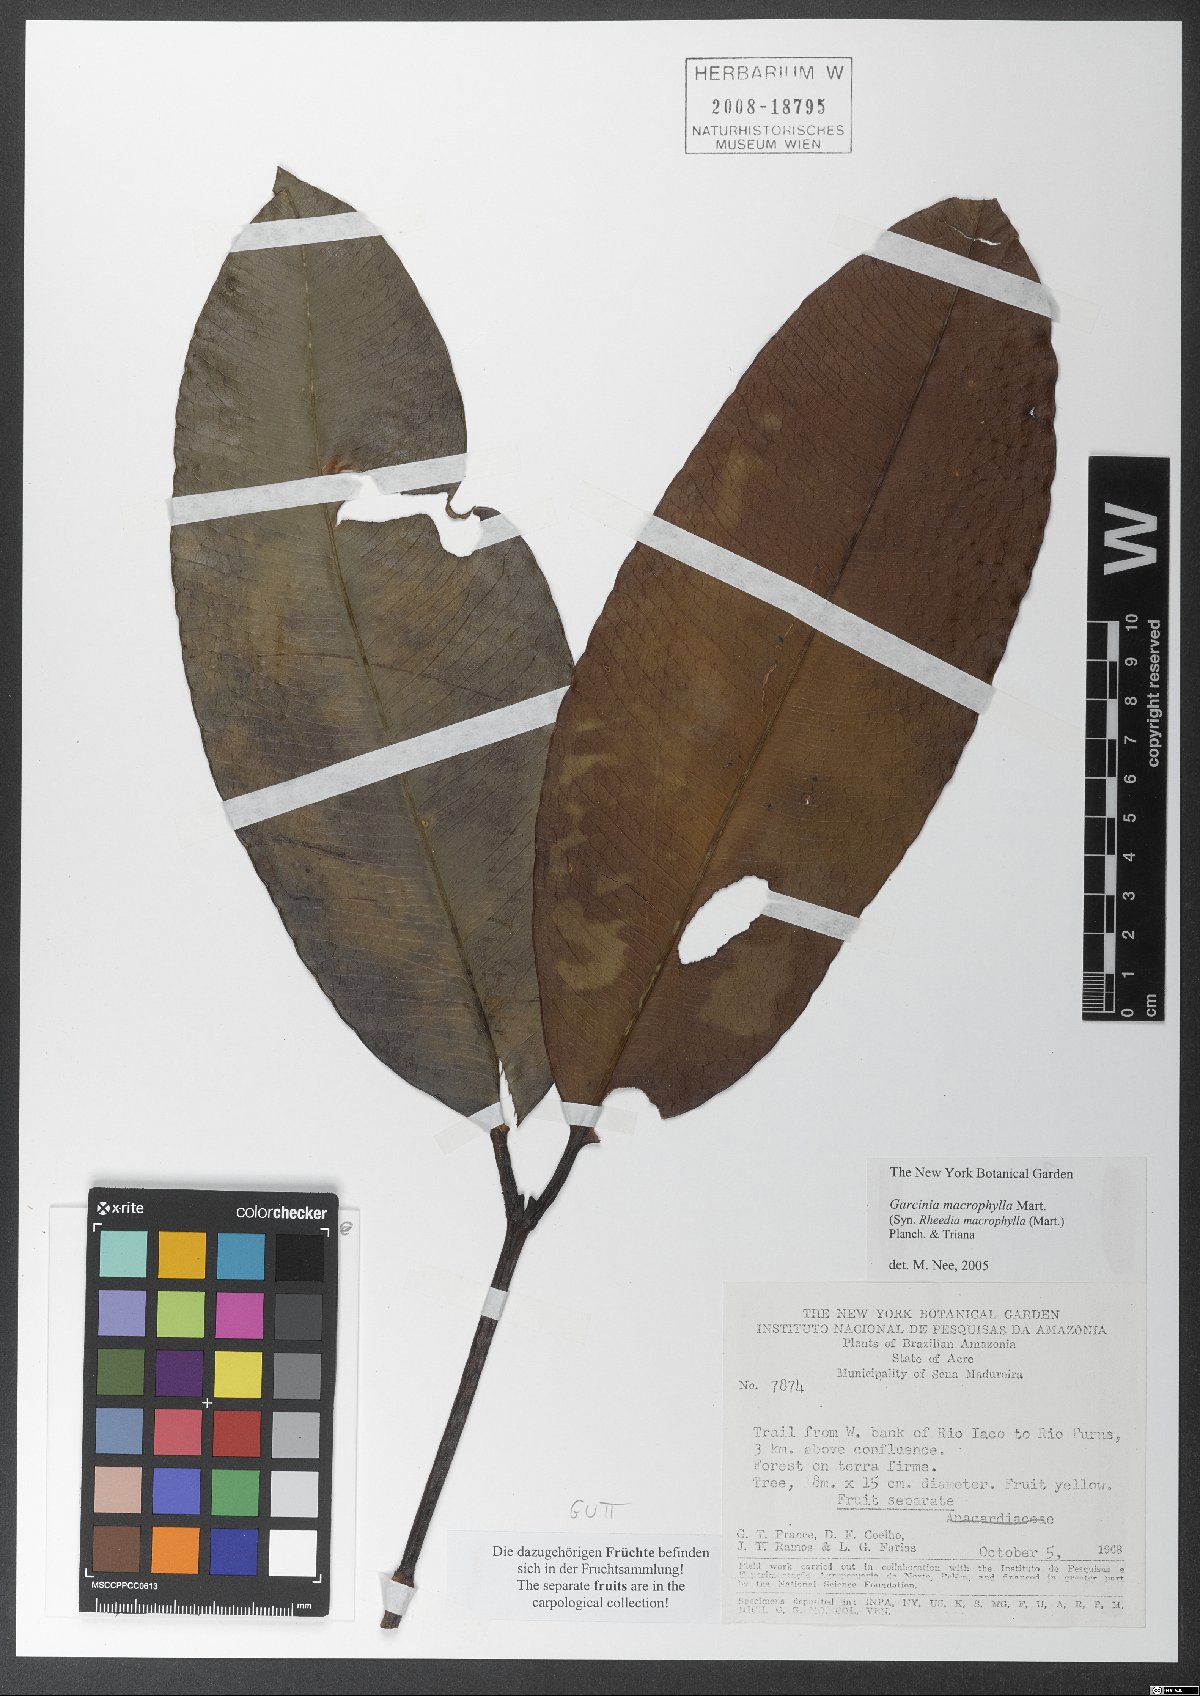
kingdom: Plantae
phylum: Tracheophyta
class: Magnoliopsida
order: Malpighiales
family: Clusiaceae
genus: Garcinia
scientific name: Garcinia macrophylla
